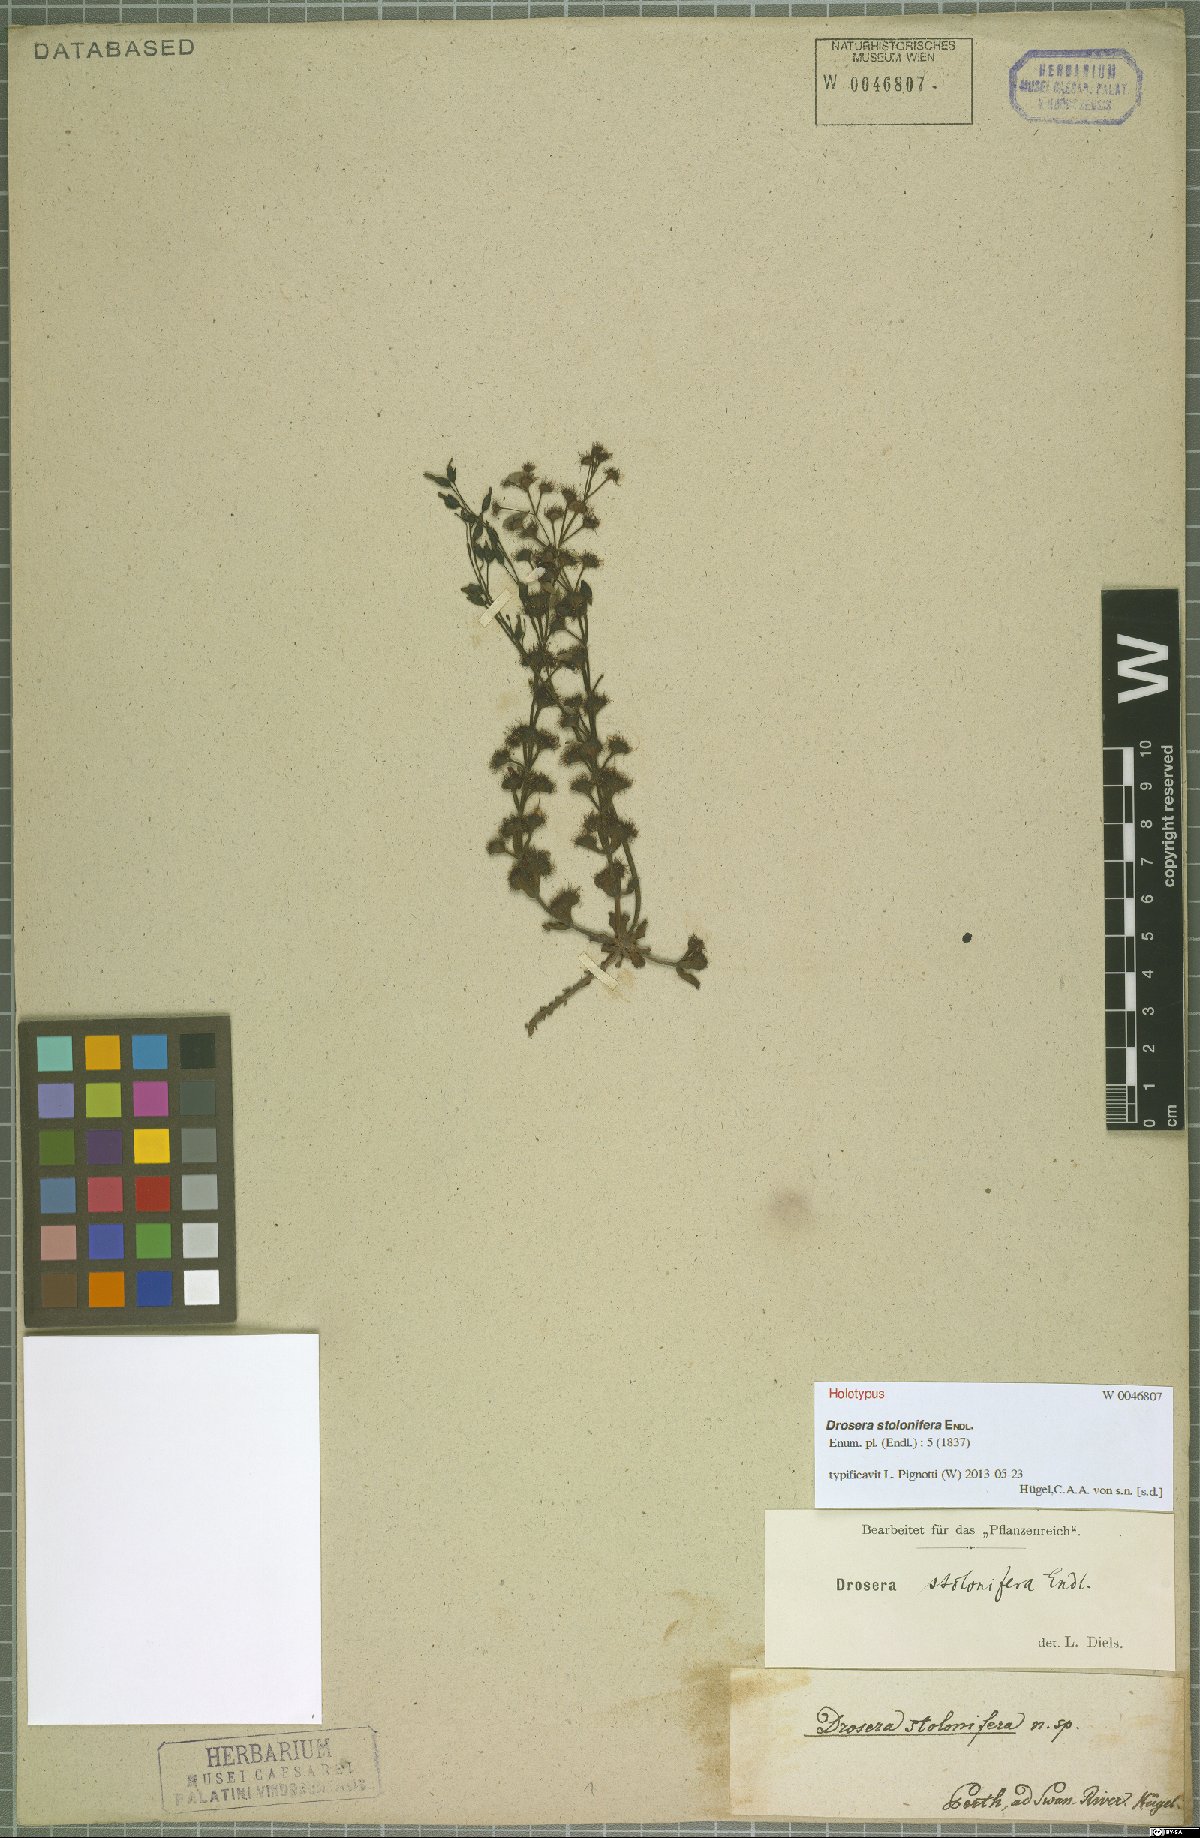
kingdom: Plantae
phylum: Tracheophyta
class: Magnoliopsida
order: Caryophyllales
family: Droseraceae
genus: Drosera
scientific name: Drosera stolonifera
